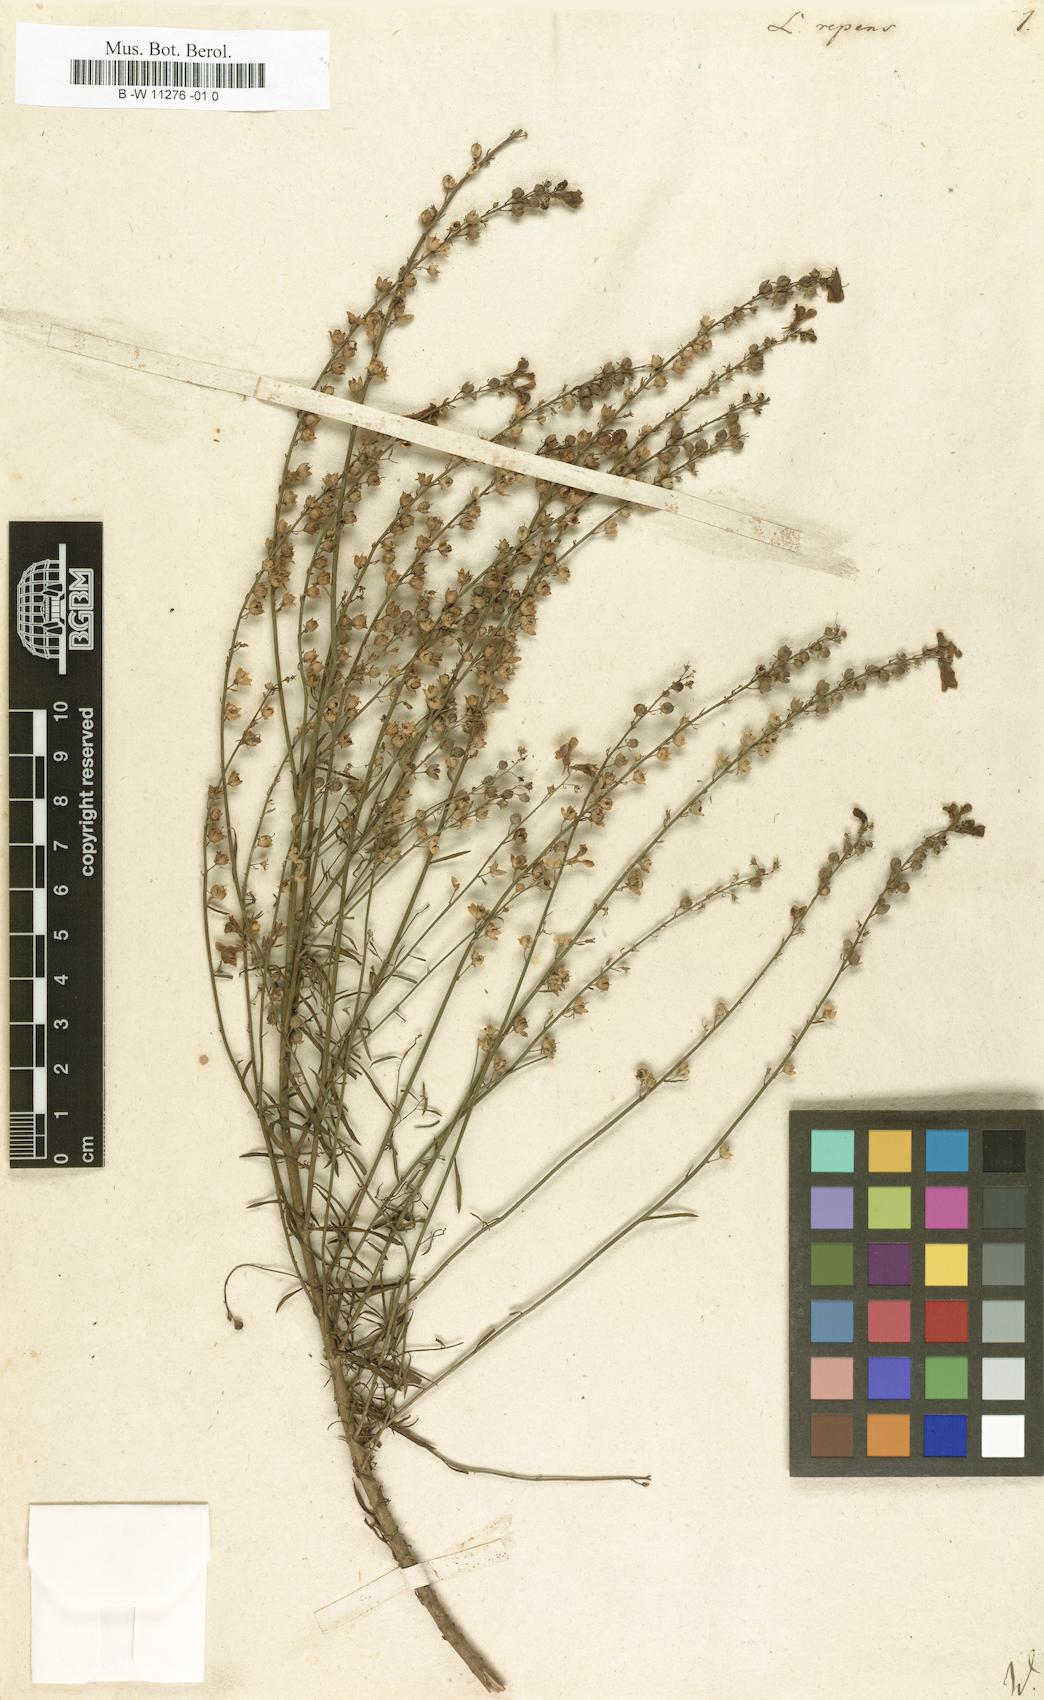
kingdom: Plantae
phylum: Tracheophyta
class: Magnoliopsida
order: Lamiales
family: Plantaginaceae
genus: Linaria
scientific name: Linaria repens
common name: Pale toadflax
